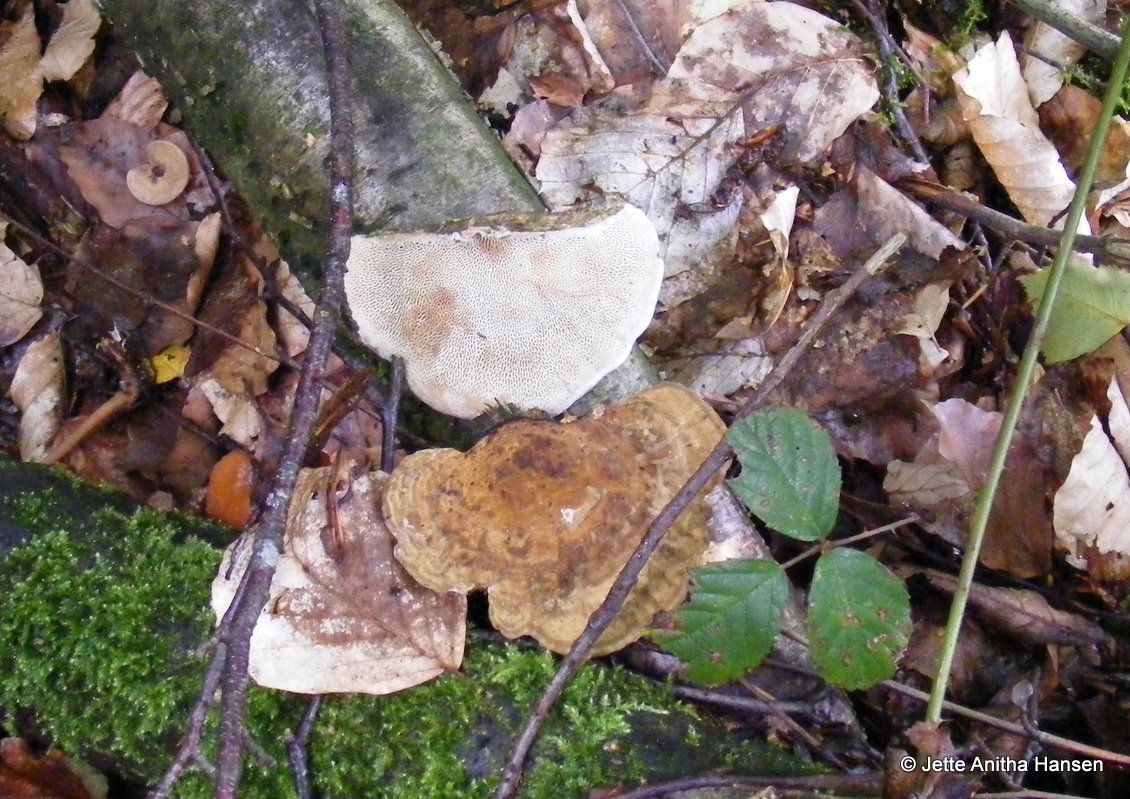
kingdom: Fungi
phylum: Basidiomycota
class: Agaricomycetes
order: Polyporales
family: Polyporaceae
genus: Daedaleopsis
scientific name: Daedaleopsis confragosa
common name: rødmende læderporesvamp
